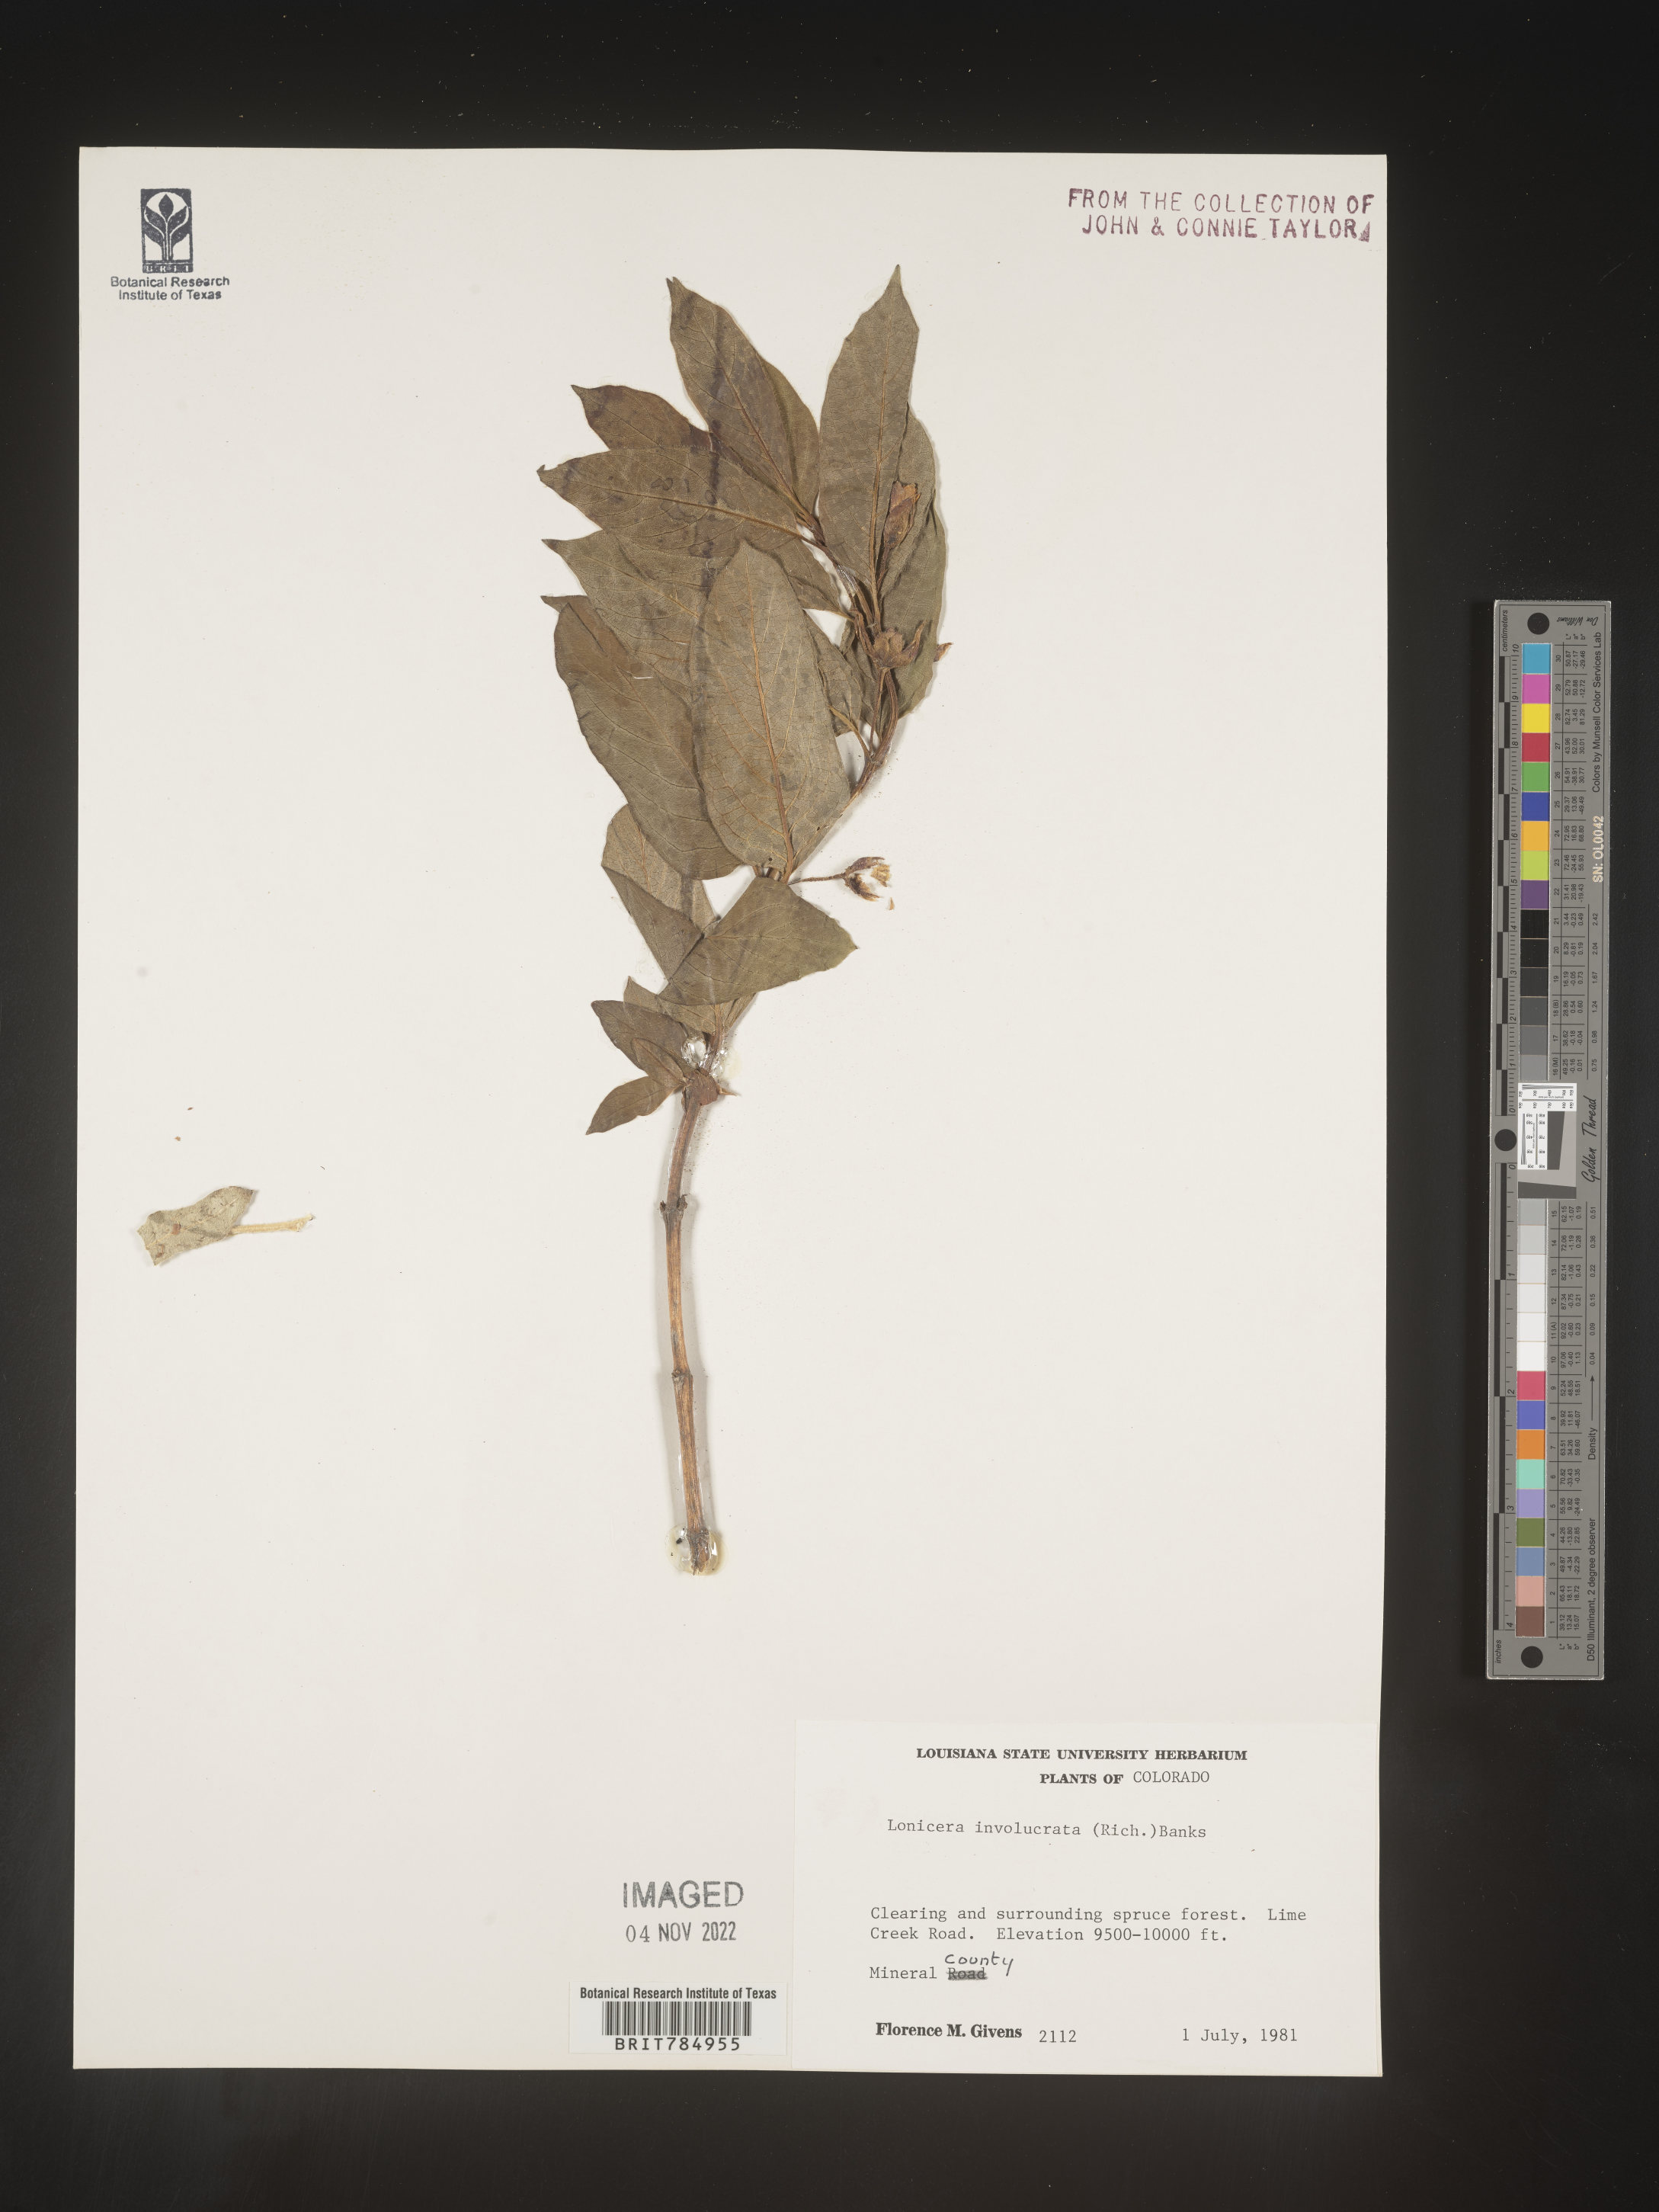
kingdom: Plantae
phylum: Tracheophyta
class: Magnoliopsida
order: Dipsacales
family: Caprifoliaceae
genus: Lonicera
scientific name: Lonicera involucrata
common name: Californian honeysuckle
